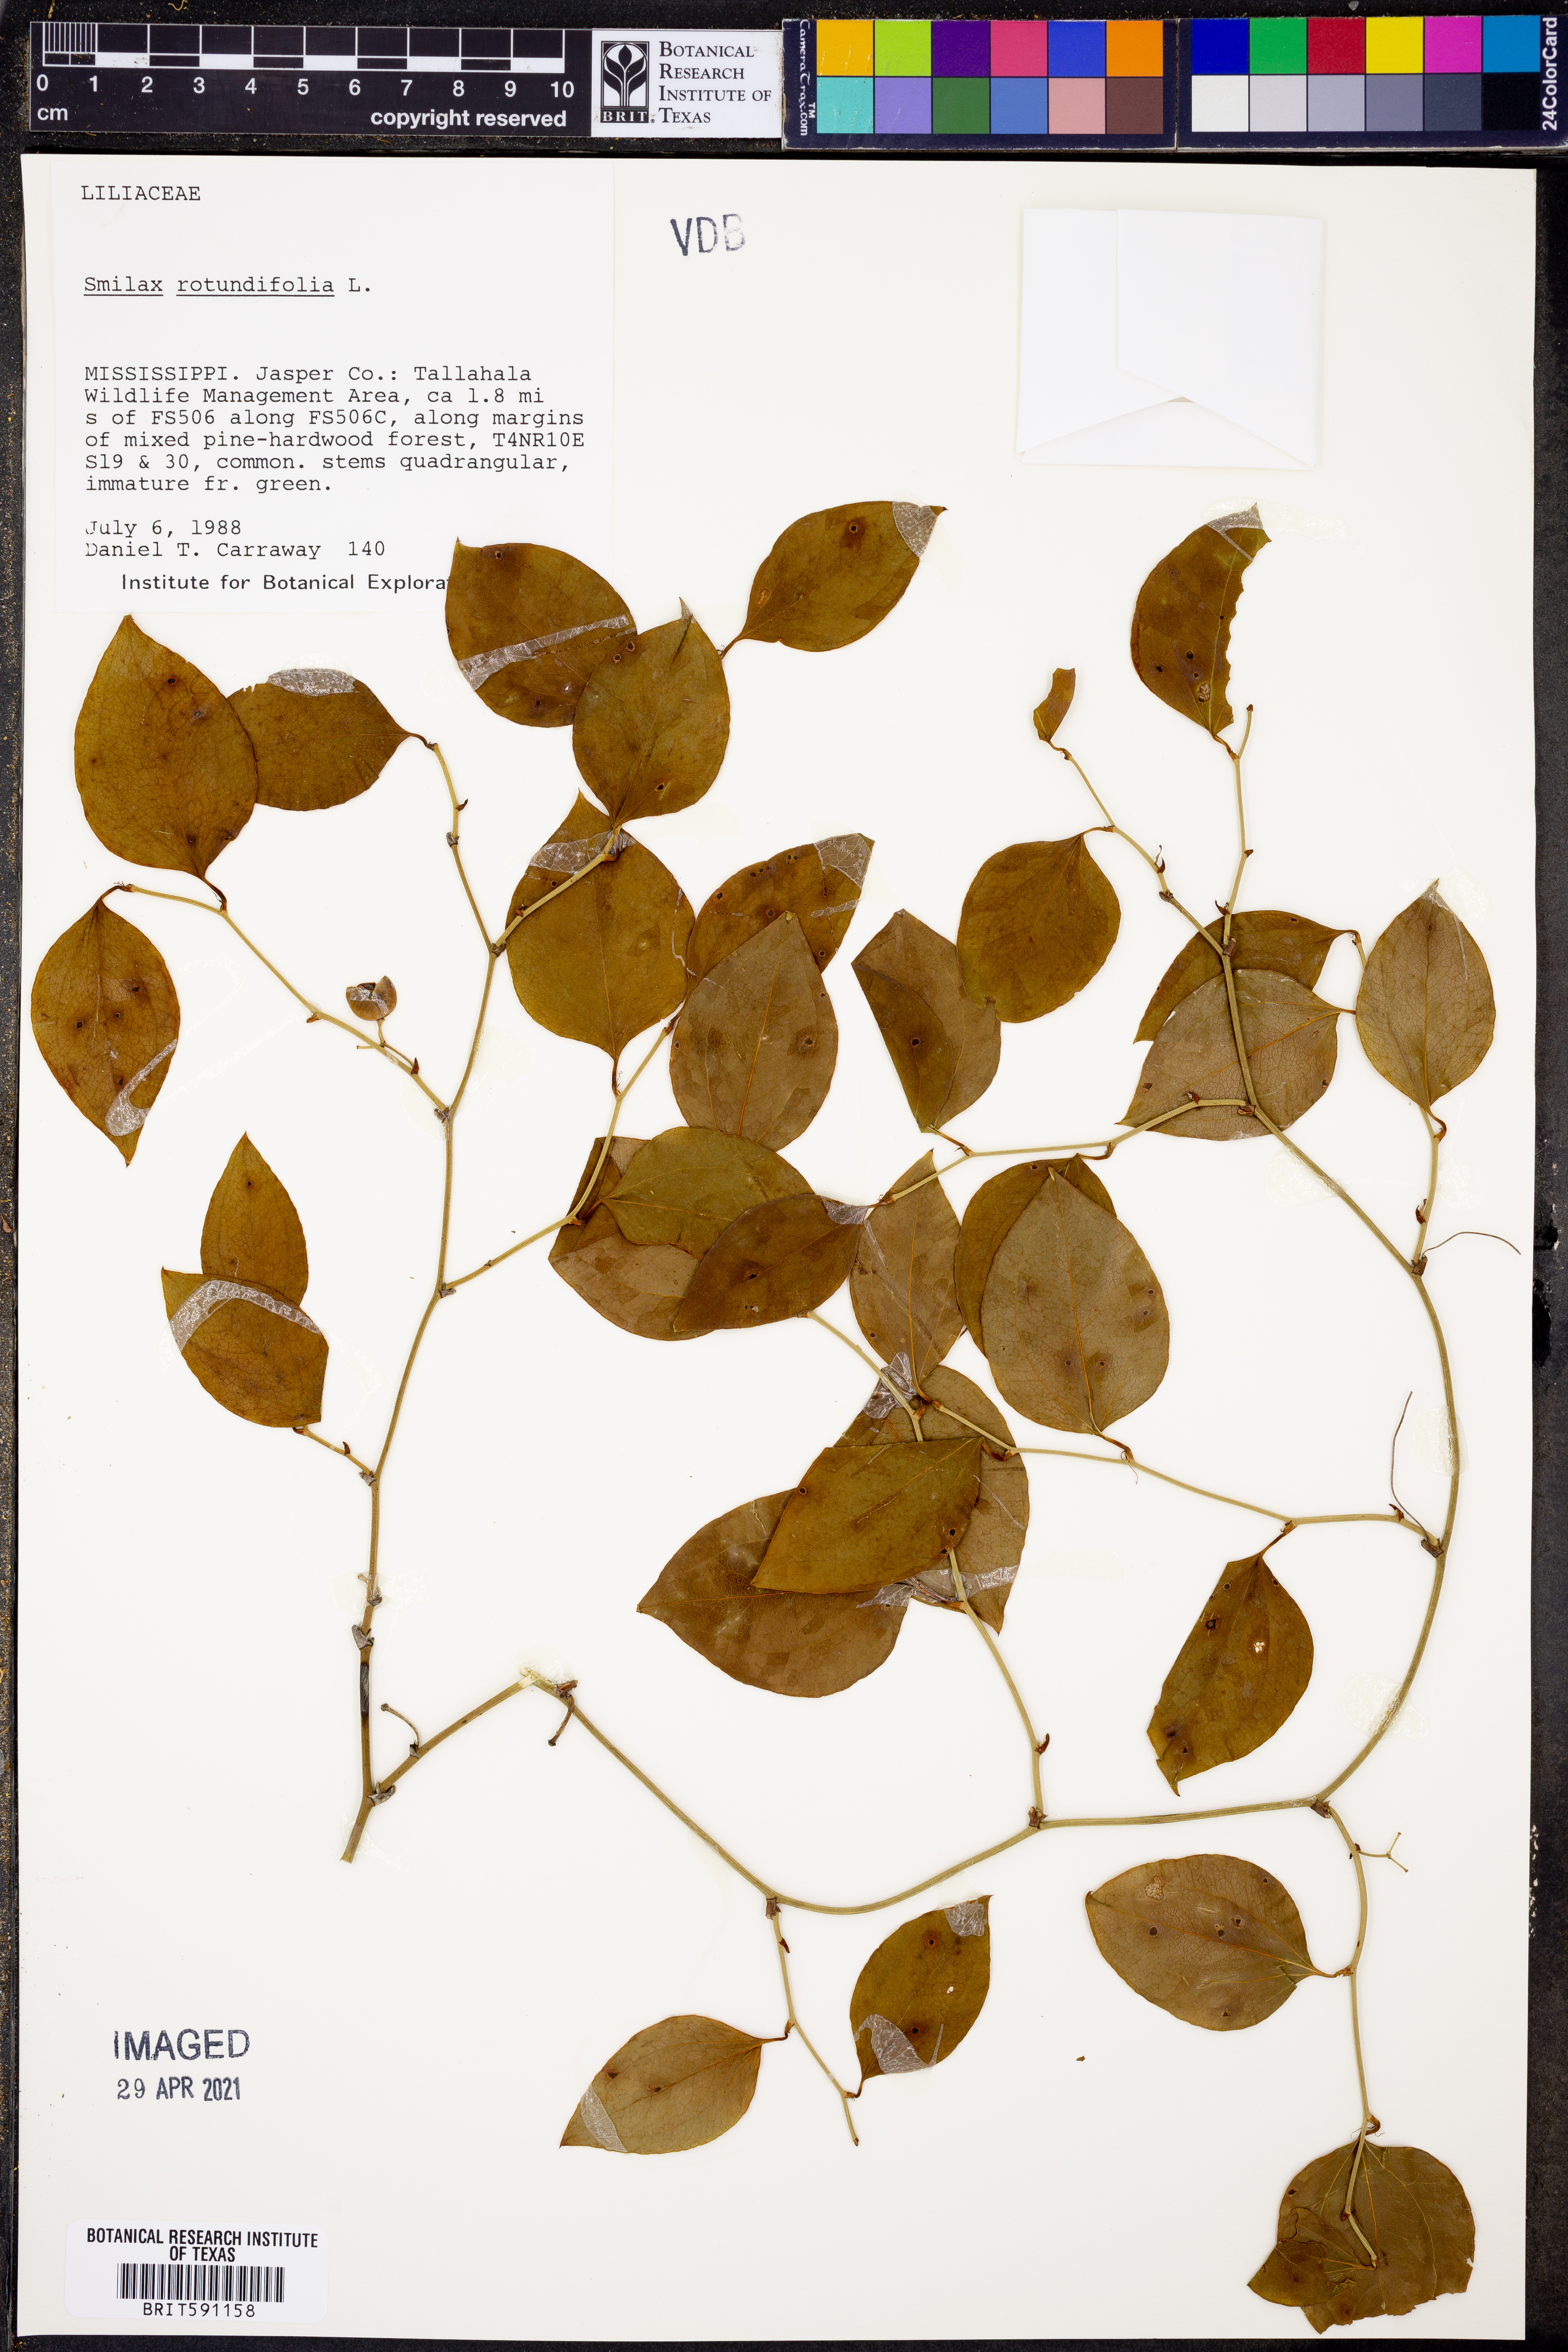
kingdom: Plantae
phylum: Tracheophyta
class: Liliopsida
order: Liliales
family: Smilacaceae
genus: Smilax
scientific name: Smilax rotundifolia
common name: Bullbriar
